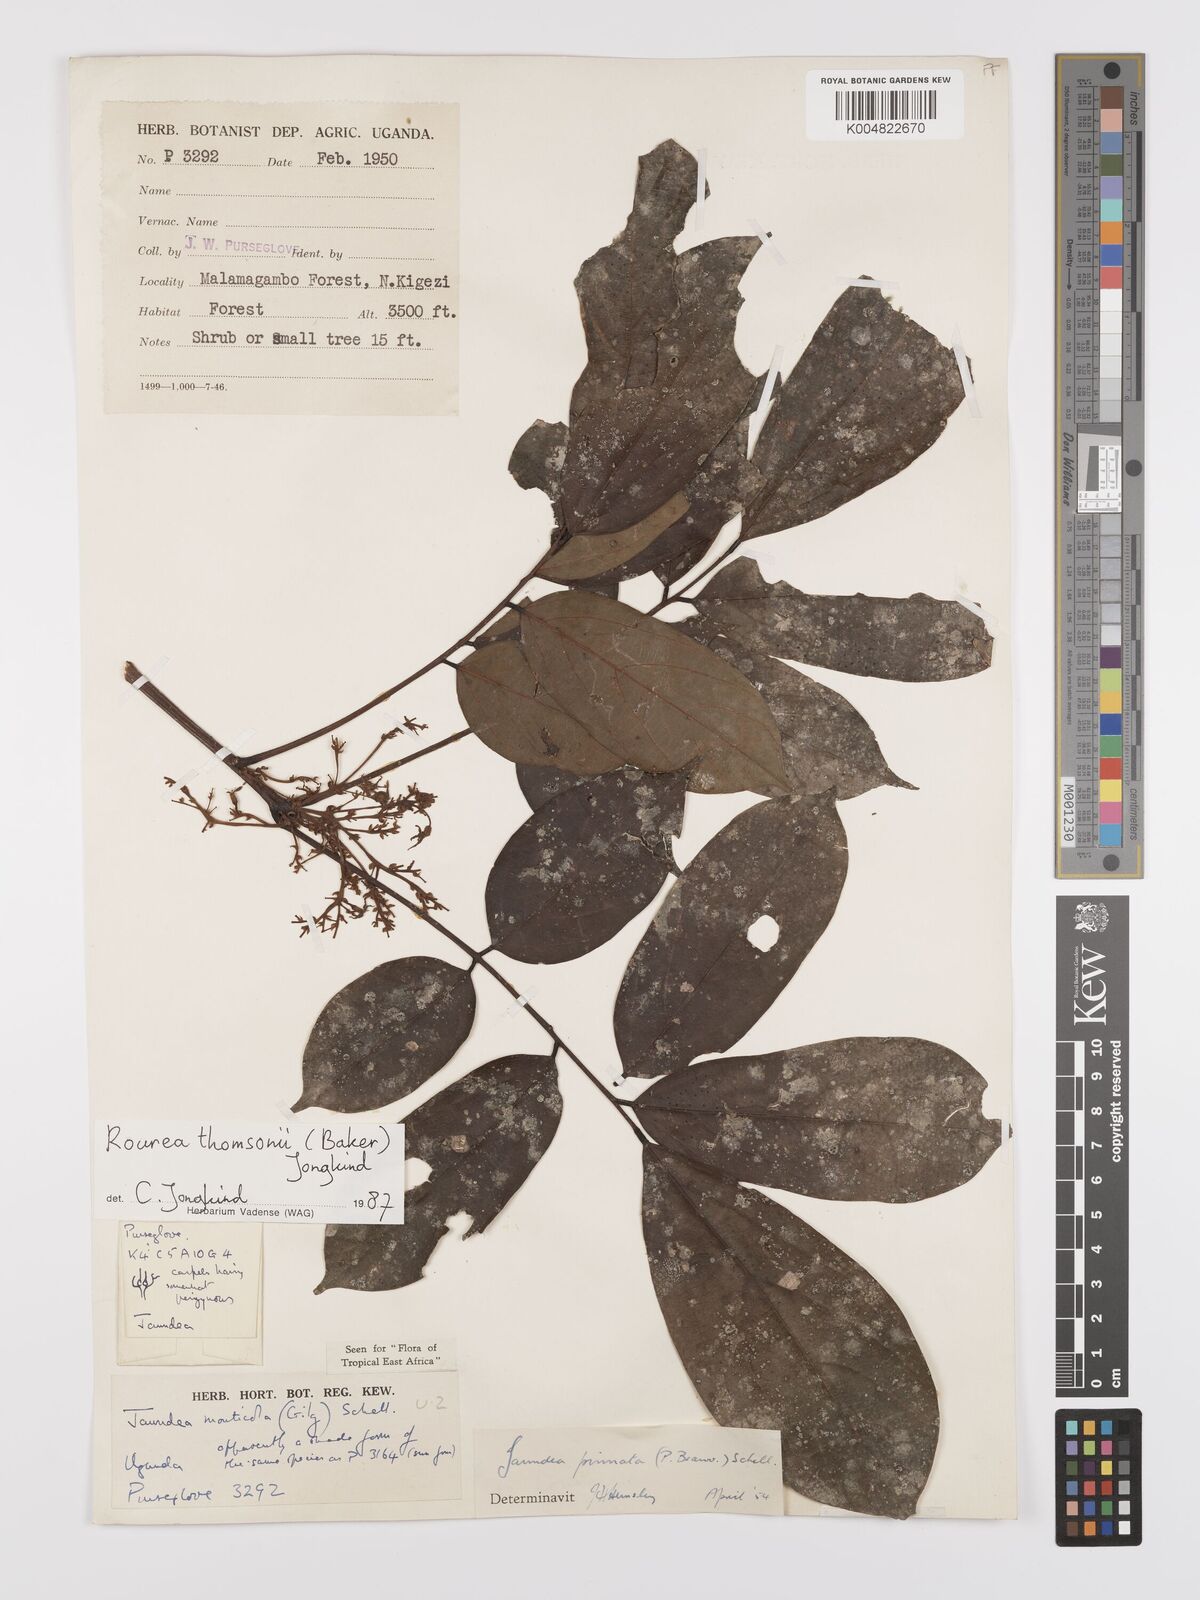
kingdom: Plantae
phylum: Tracheophyta
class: Magnoliopsida
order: Oxalidales
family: Connaraceae
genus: Rourea
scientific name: Rourea pinnata
